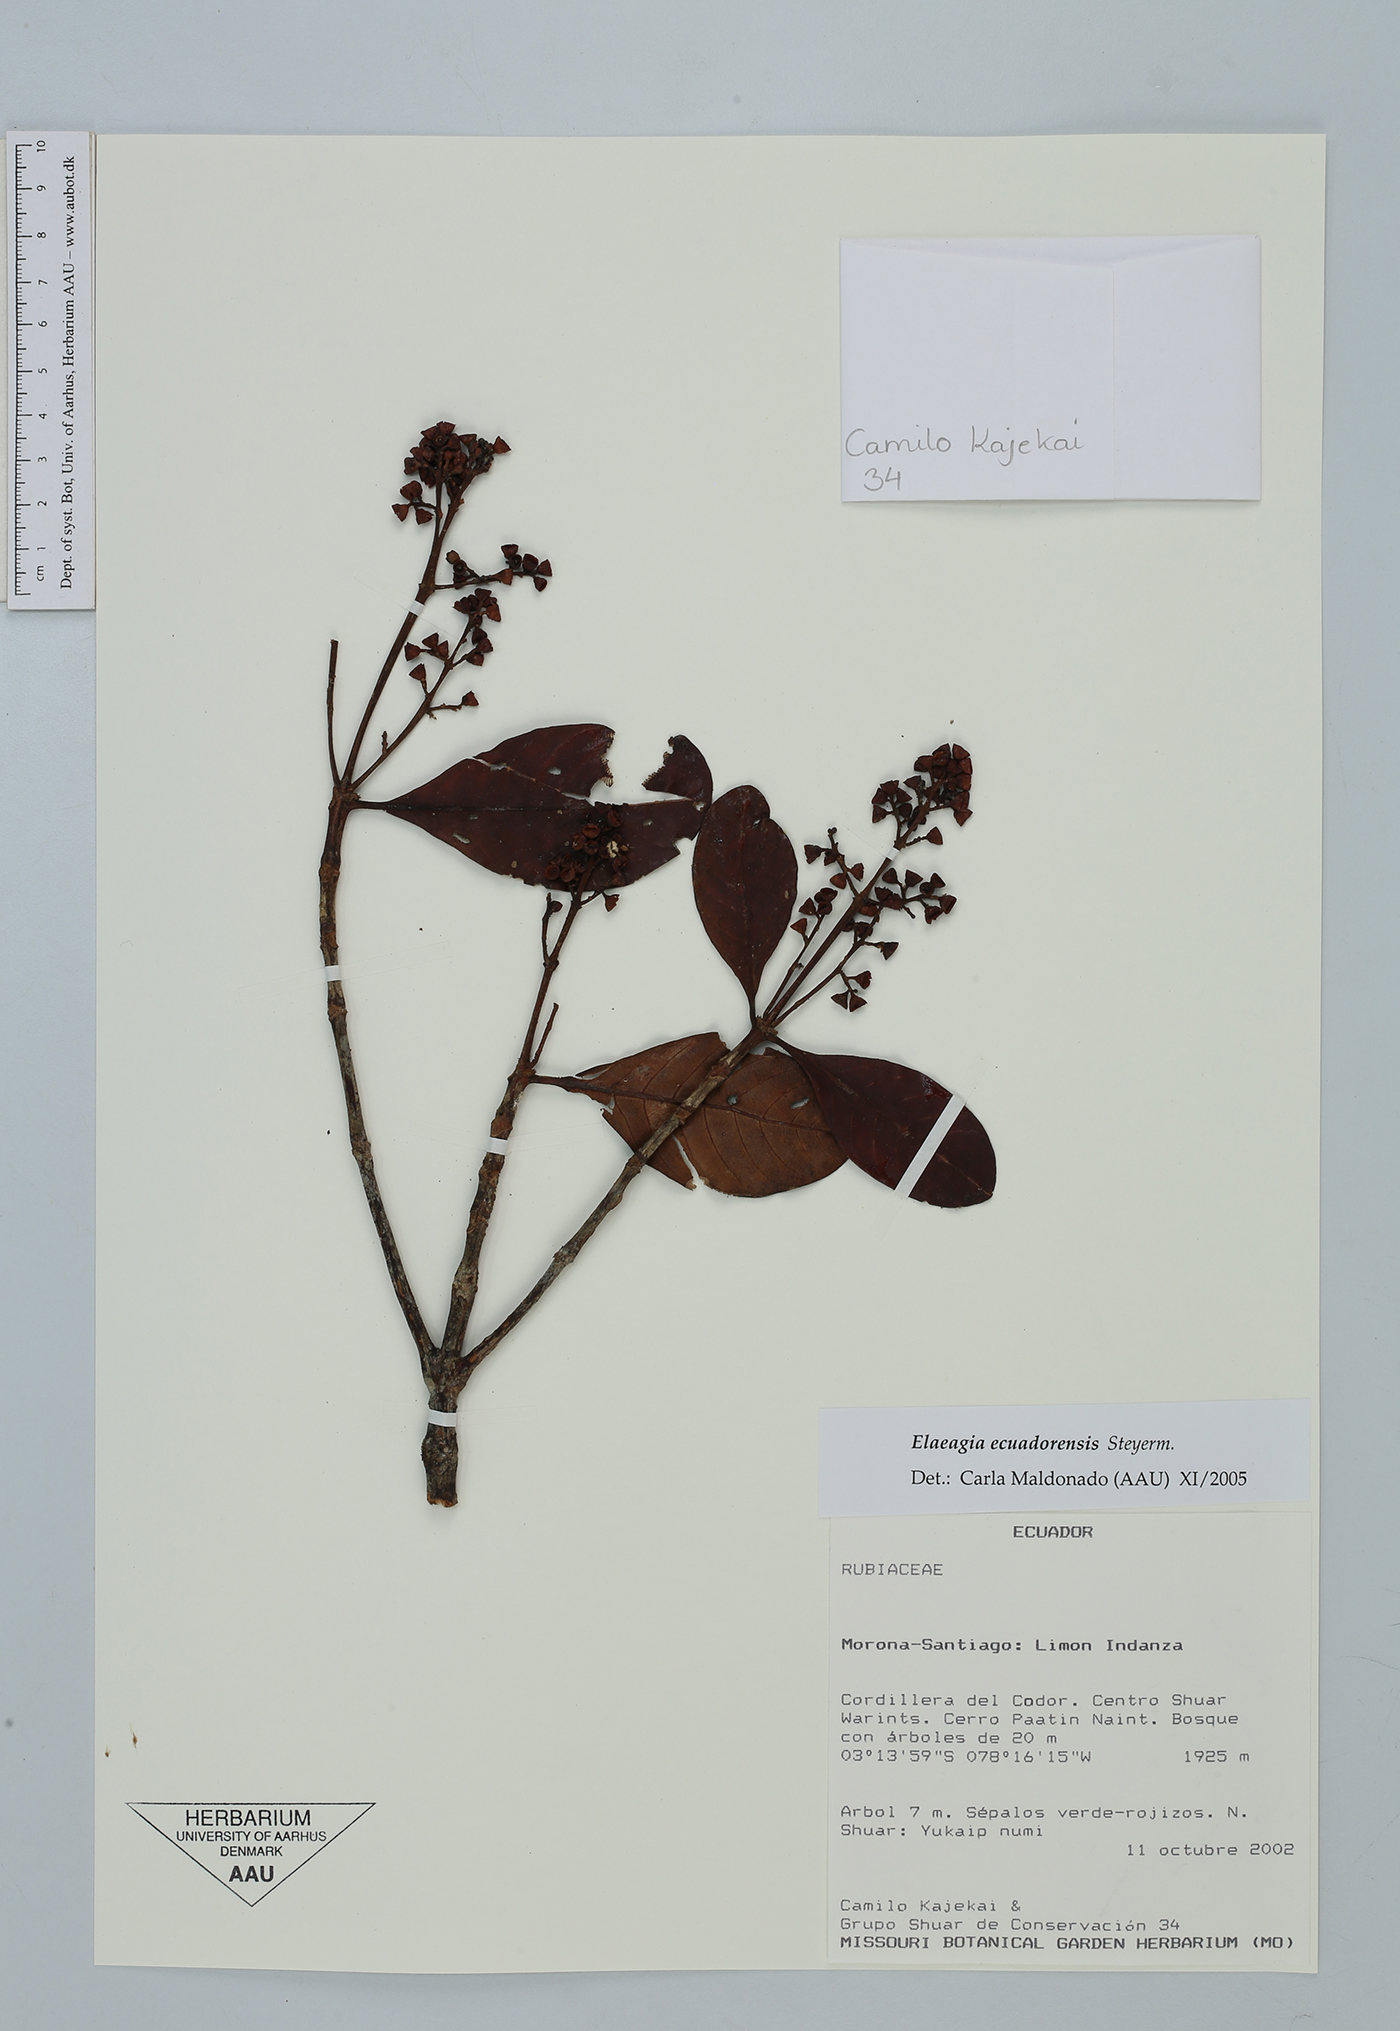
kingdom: Plantae
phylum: Tracheophyta
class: Magnoliopsida
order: Gentianales
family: Rubiaceae
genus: Elaeagia
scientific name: Elaeagia ecuadorensis
